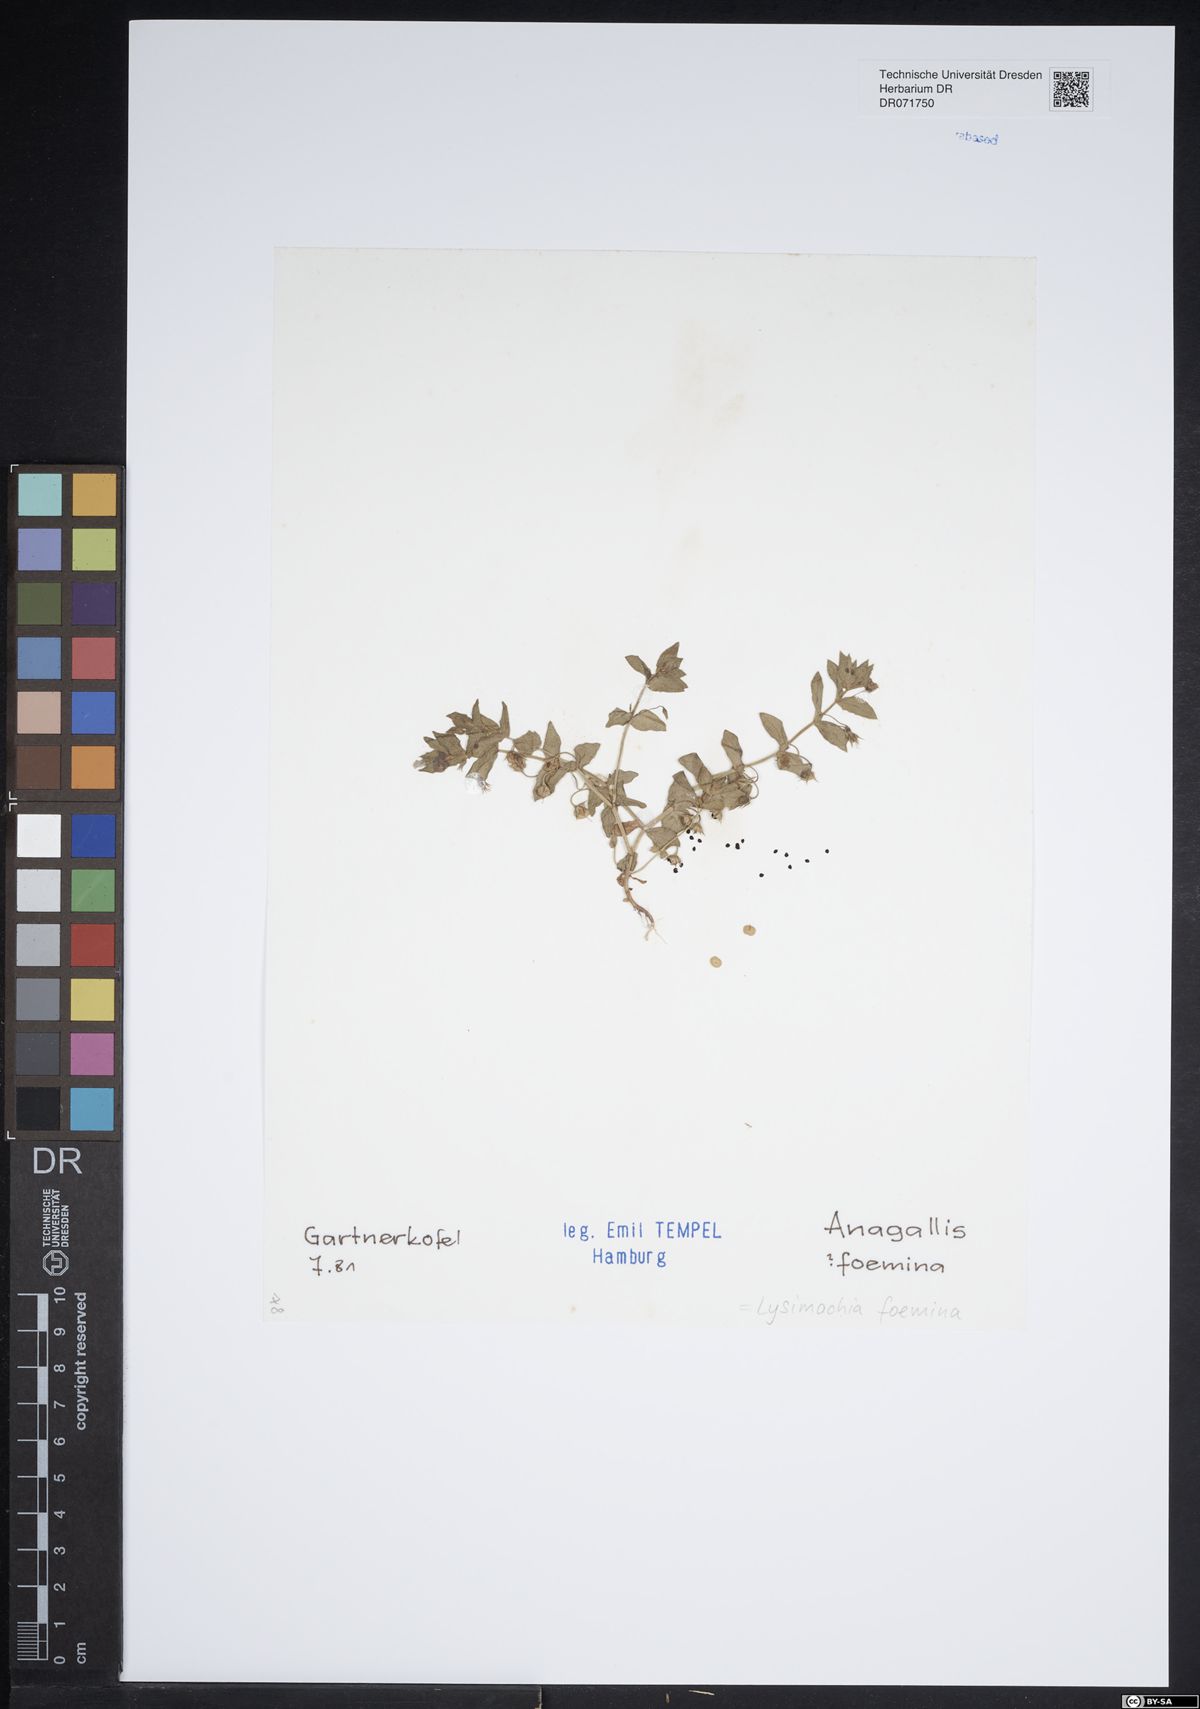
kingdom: Plantae
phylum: Tracheophyta
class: Magnoliopsida
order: Ericales
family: Primulaceae
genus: Lysimachia
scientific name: Lysimachia foemina
